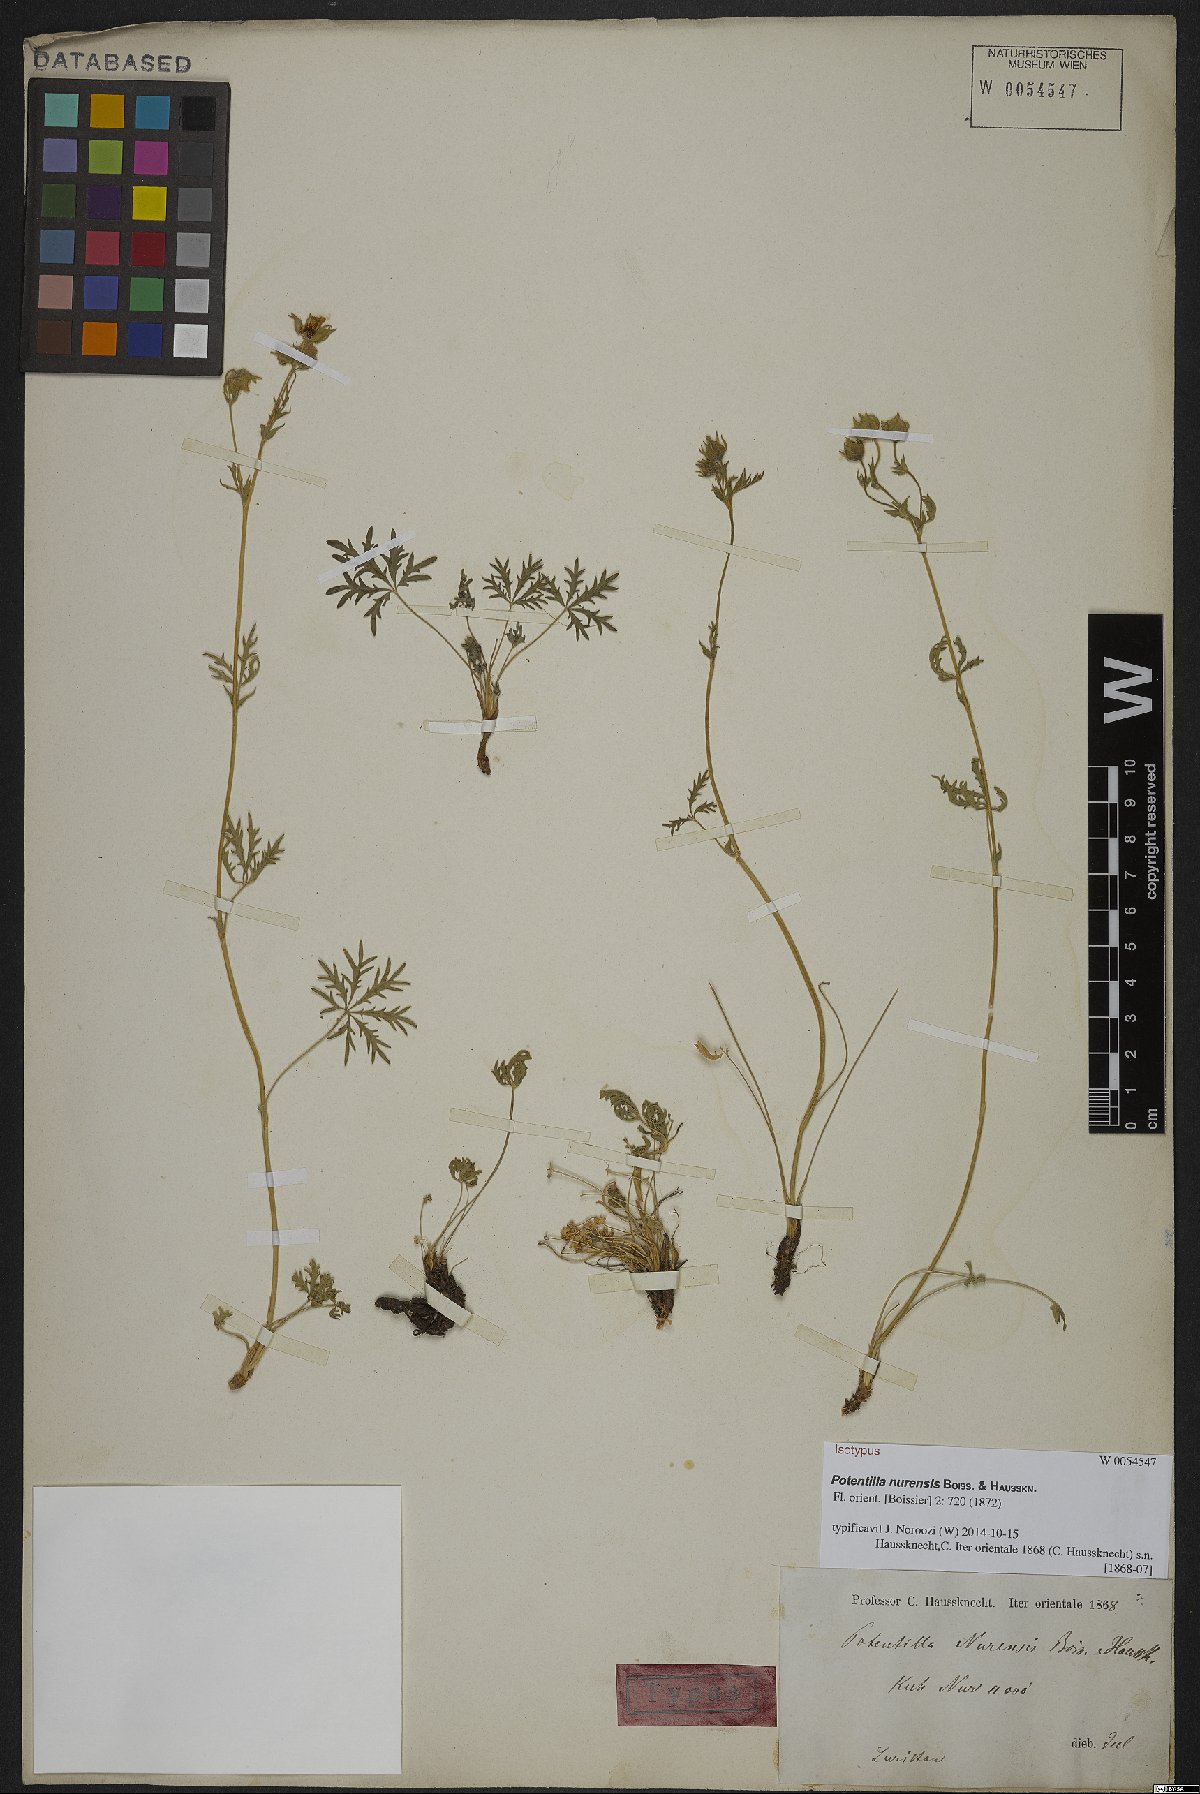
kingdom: Plantae
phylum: Tracheophyta
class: Magnoliopsida
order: Rosales
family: Rosaceae
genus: Potentilla
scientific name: Potentilla nurensis
